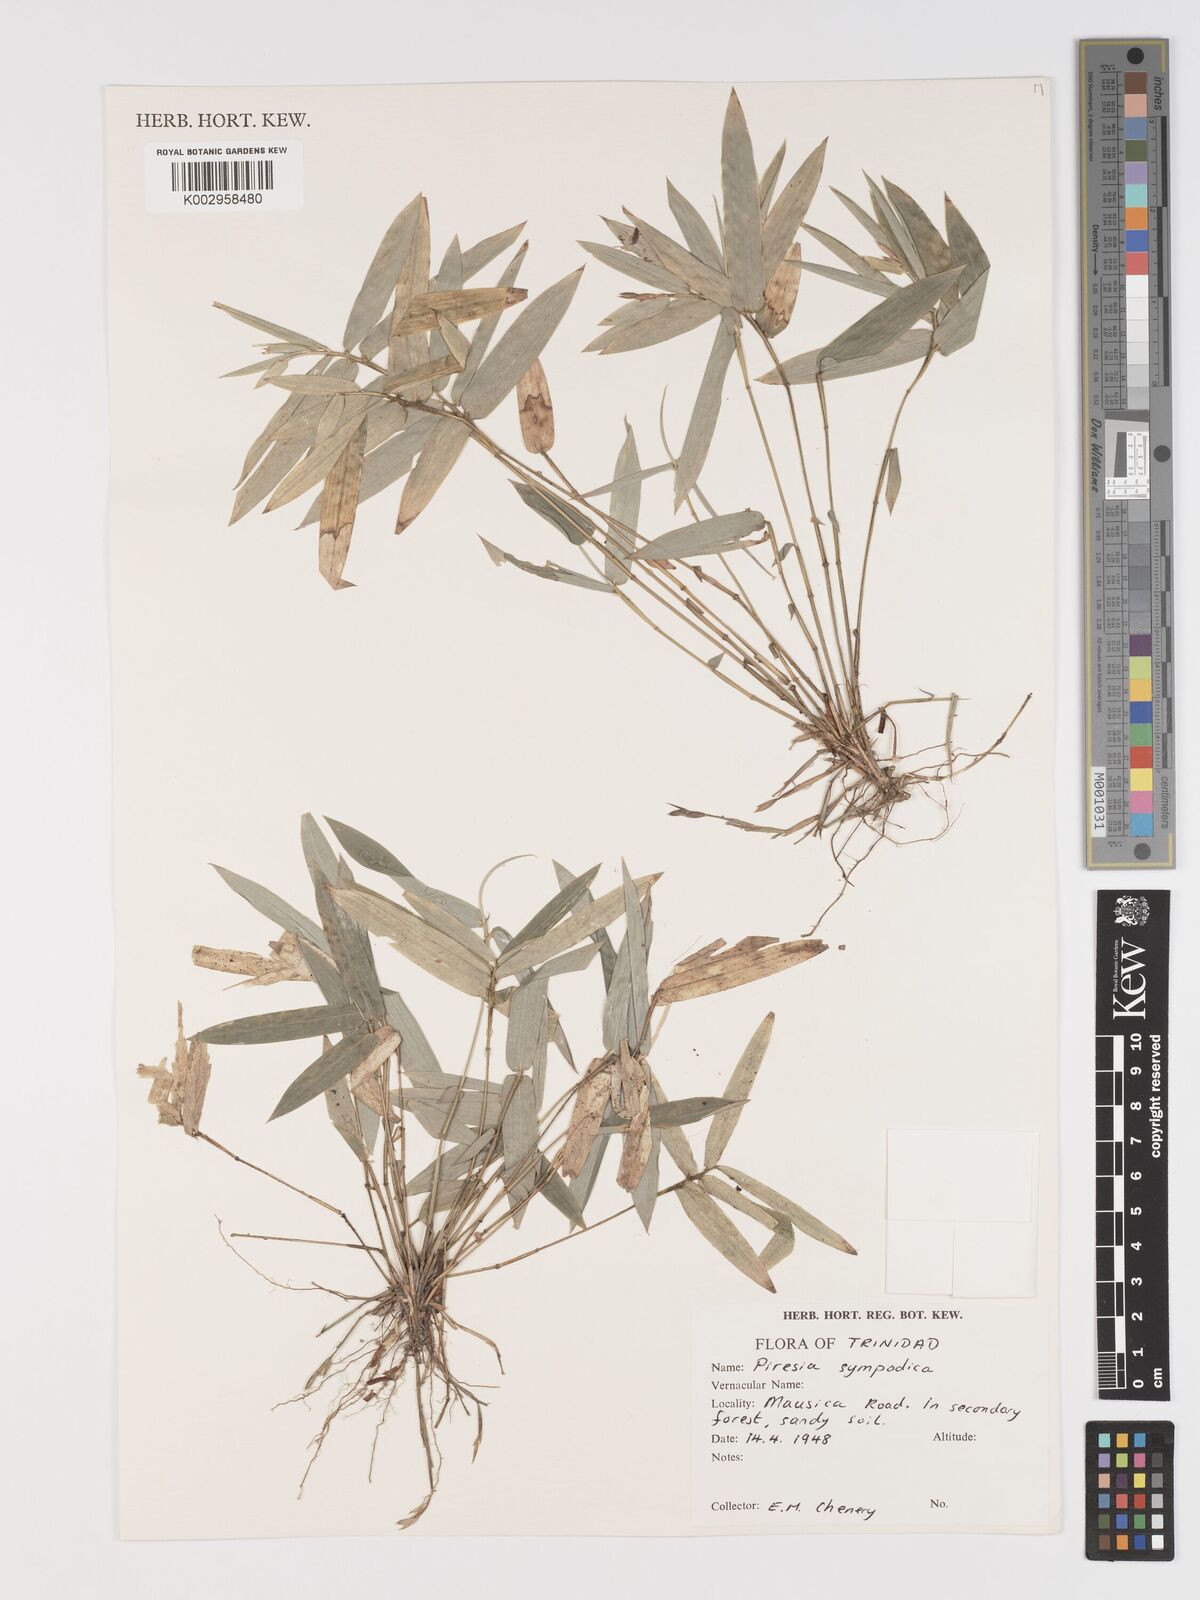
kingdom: Plantae
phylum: Tracheophyta
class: Liliopsida
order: Poales
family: Poaceae
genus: Piresia
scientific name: Piresia sympodica
